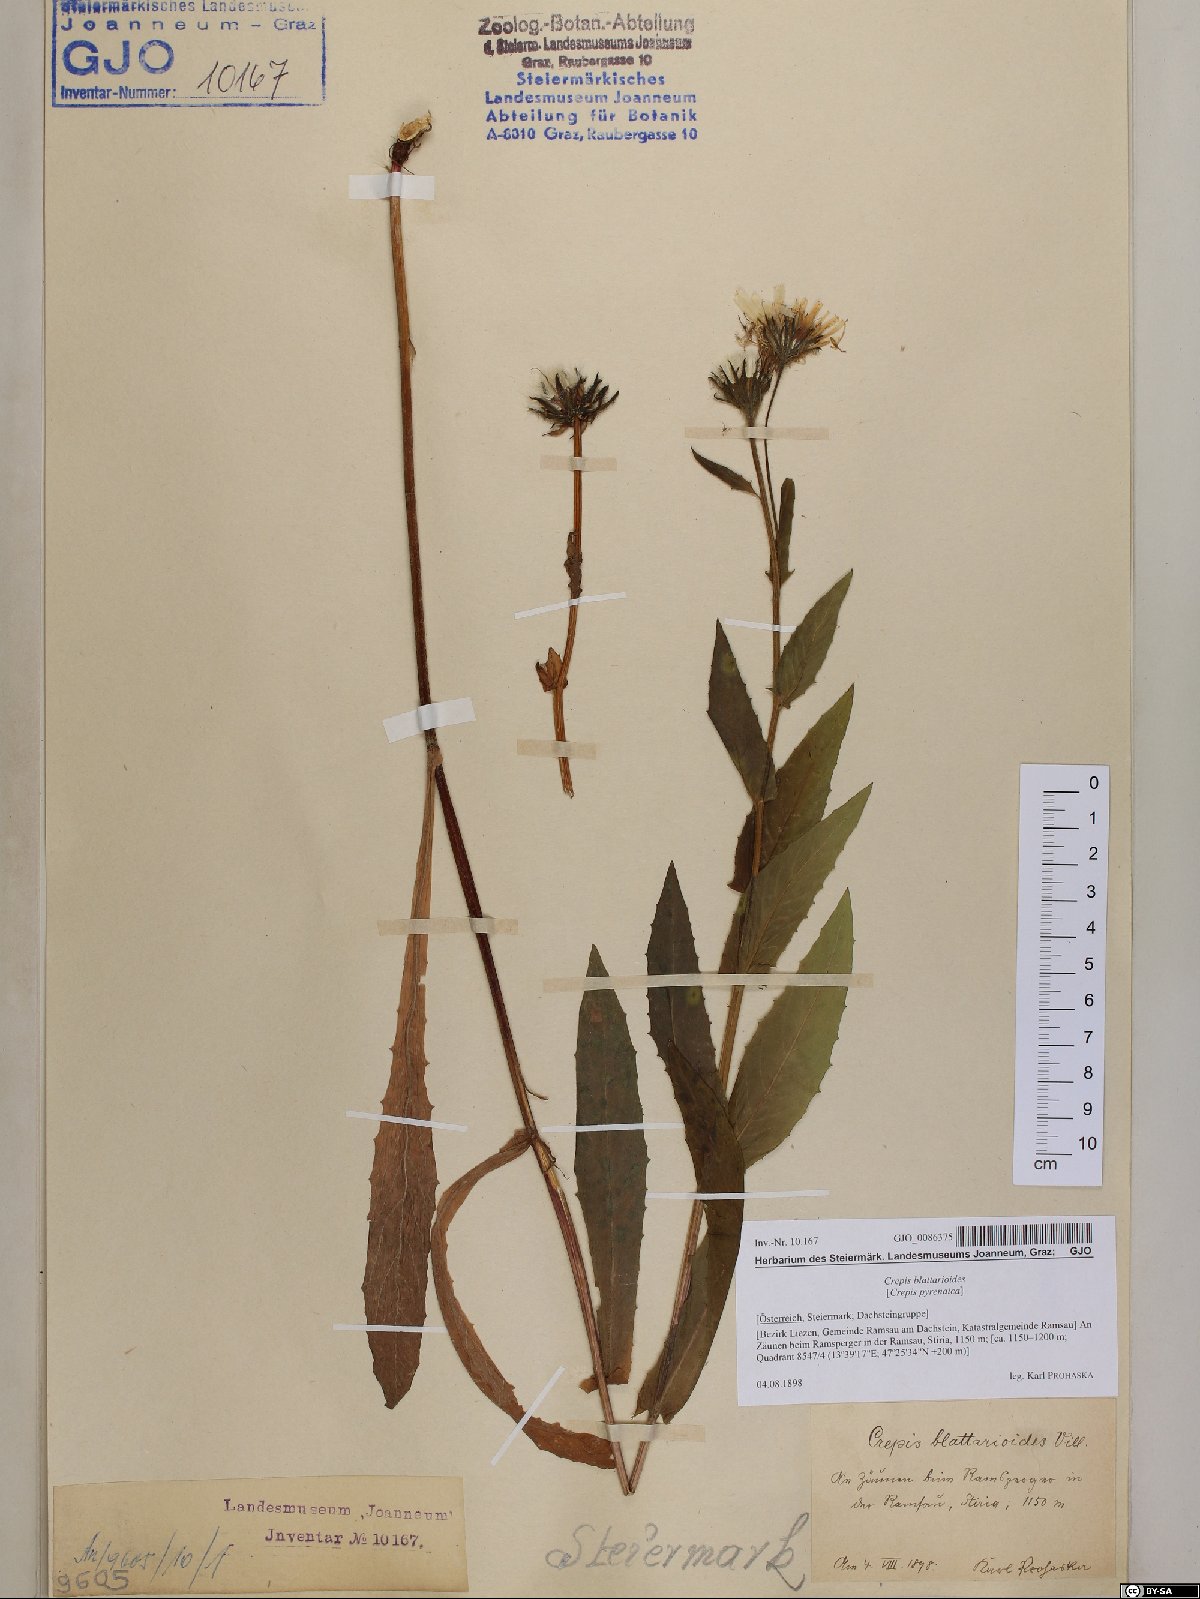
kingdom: Plantae
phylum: Tracheophyta
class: Magnoliopsida
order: Asterales
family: Asteraceae
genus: Crepis
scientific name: Crepis blattarioides
